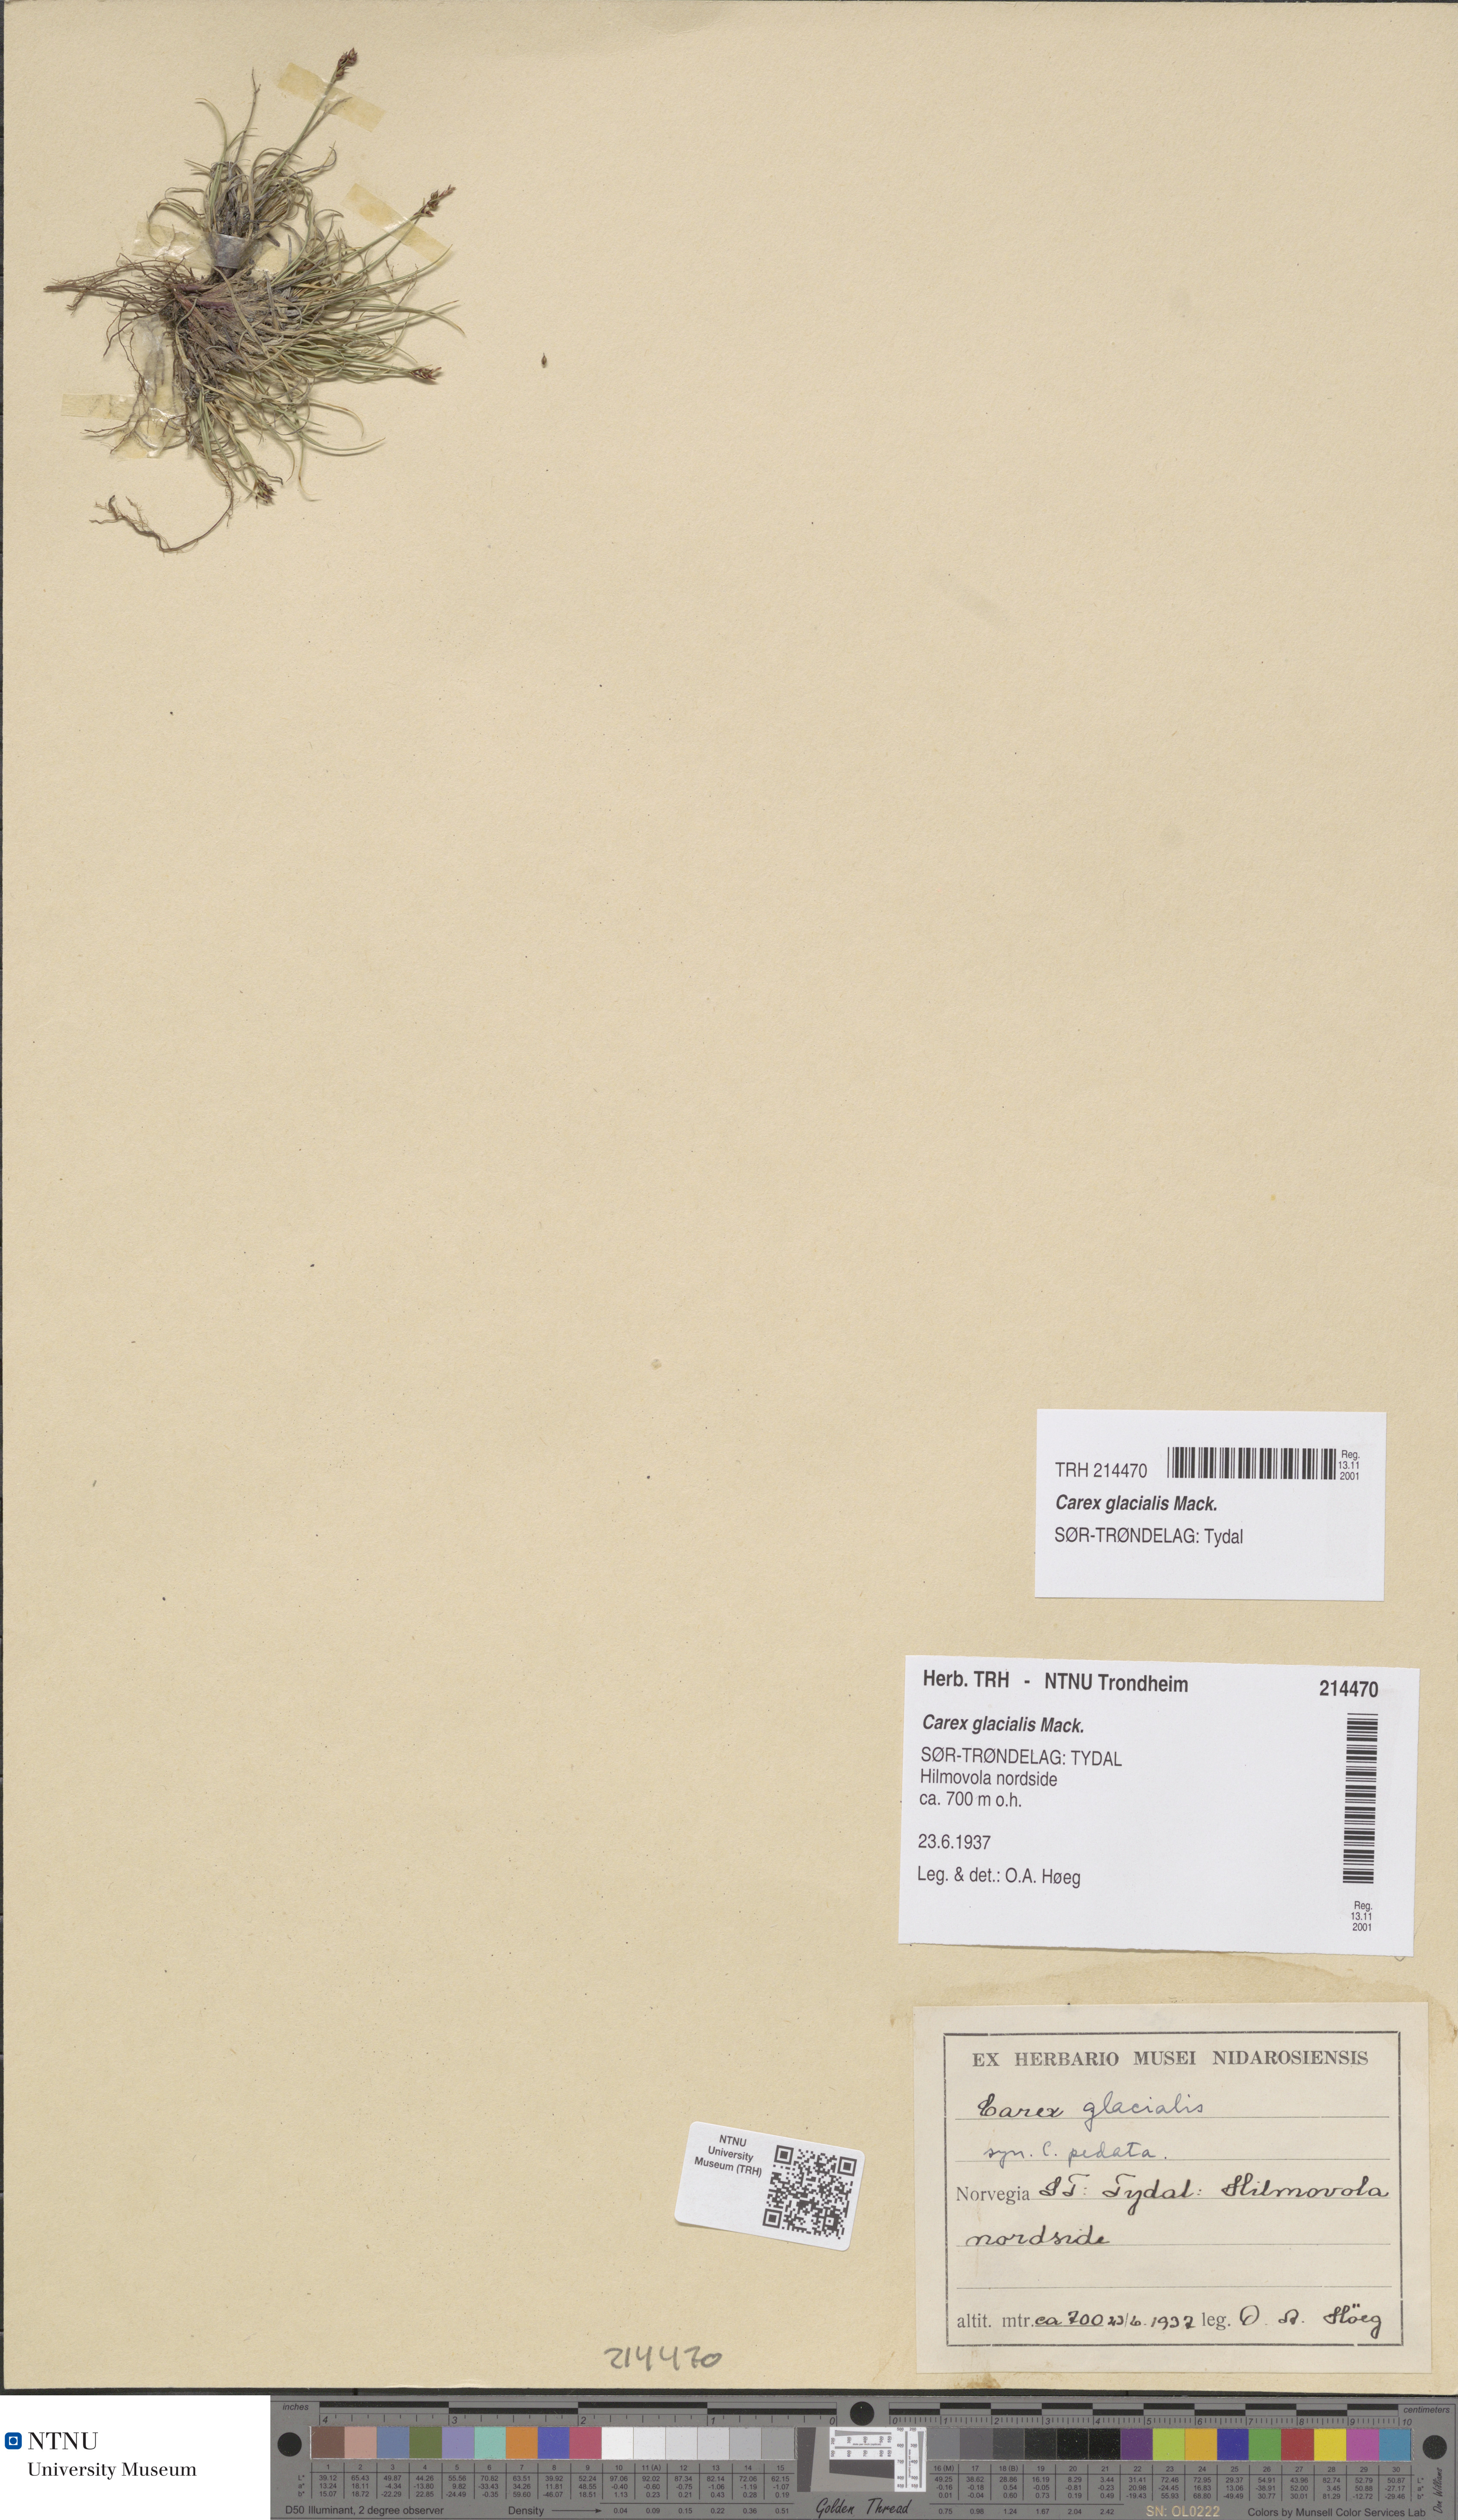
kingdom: Plantae
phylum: Tracheophyta
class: Liliopsida
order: Poales
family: Cyperaceae
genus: Carex
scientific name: Carex glacialis
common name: Newfoundland sedge
